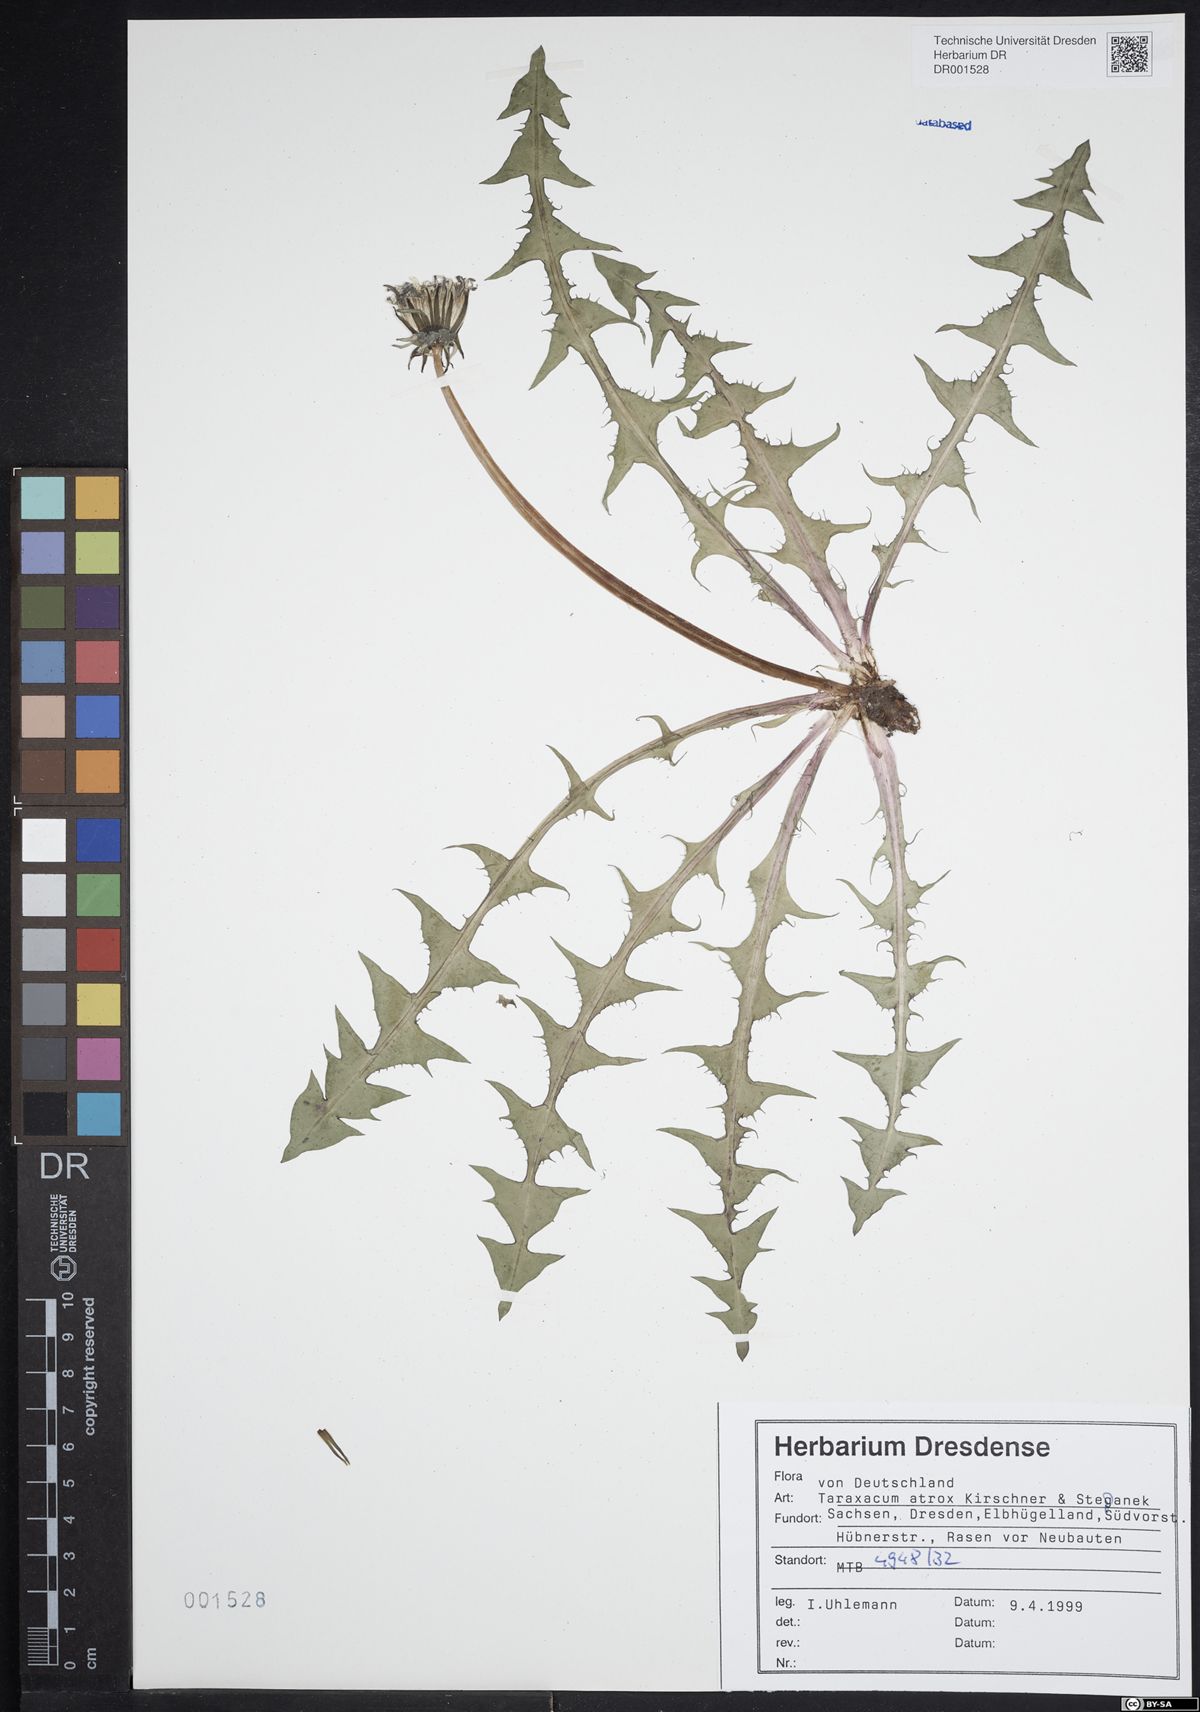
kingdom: Plantae
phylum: Tracheophyta
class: Magnoliopsida
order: Asterales
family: Asteraceae
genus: Taraxacum
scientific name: Taraxacum atrox
